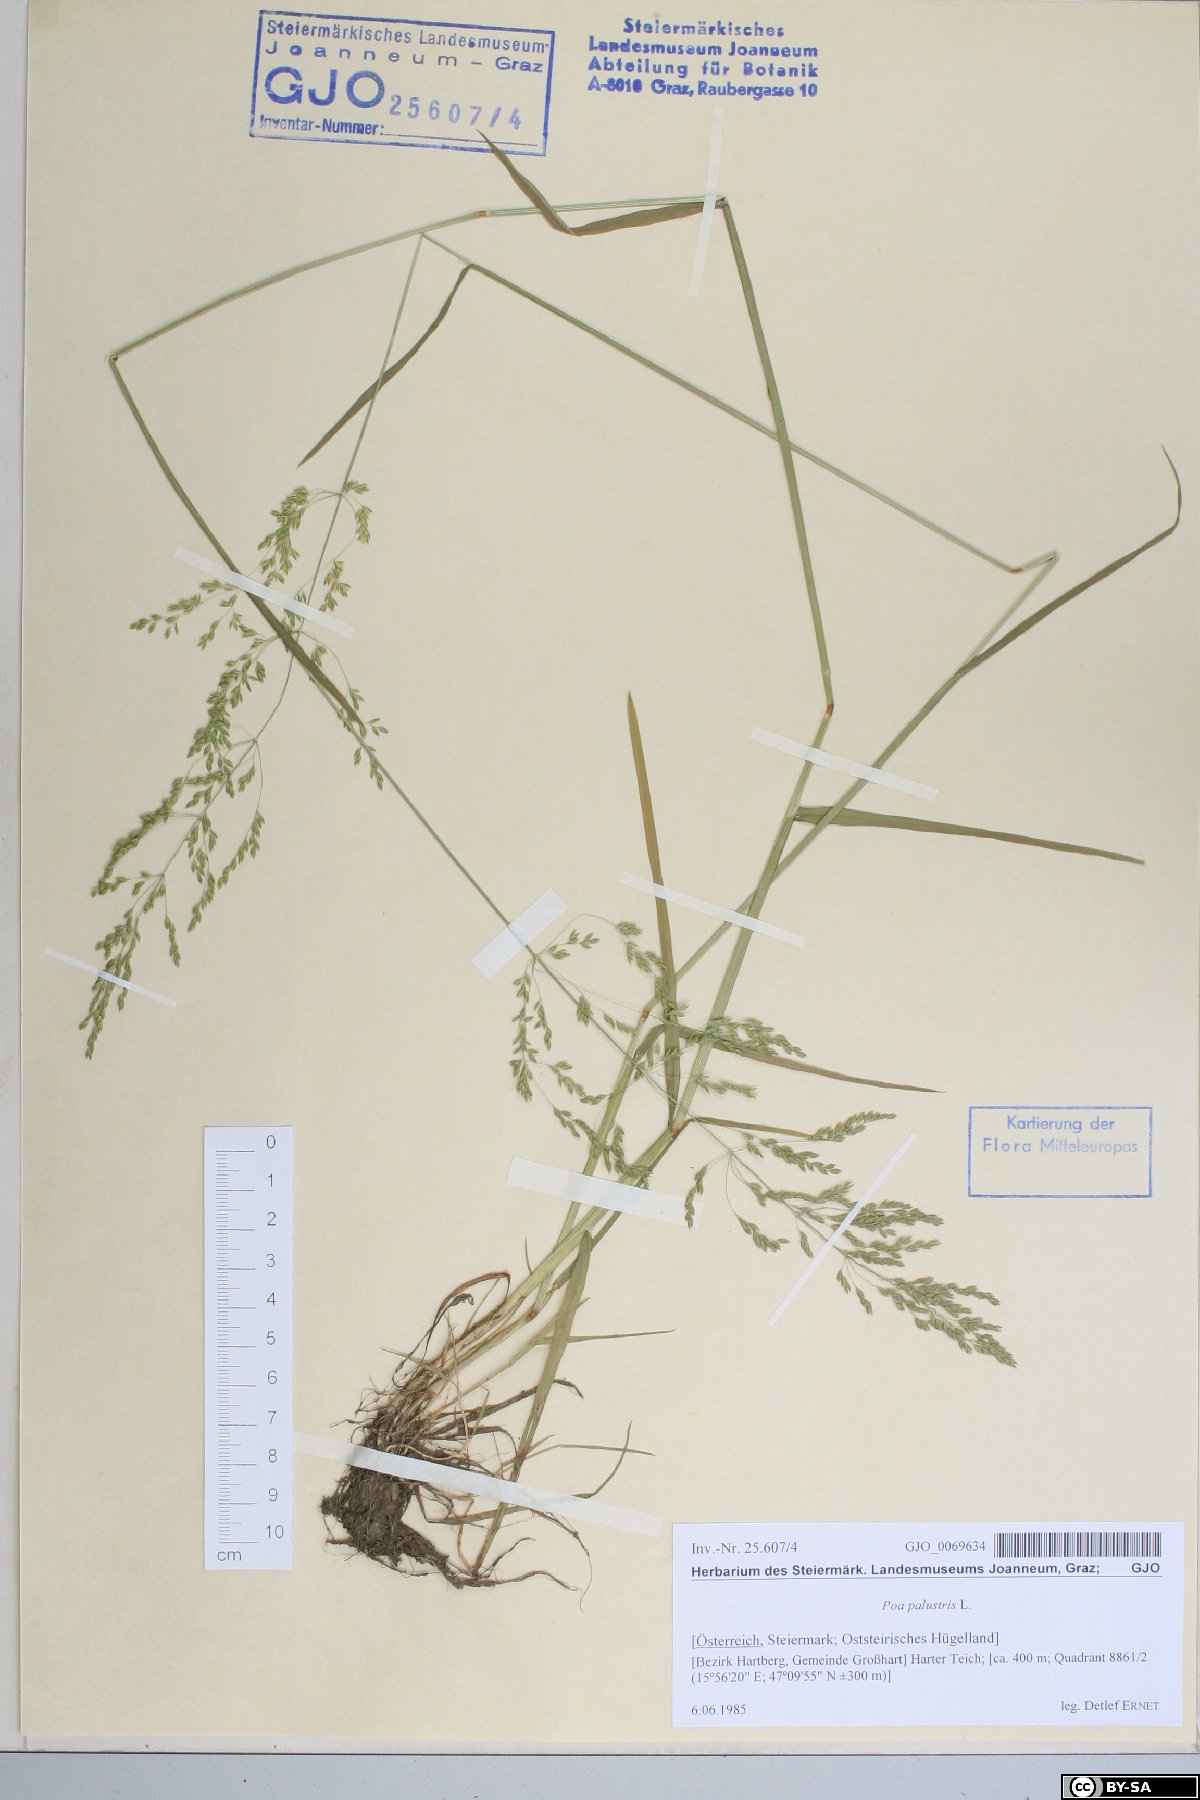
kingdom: Plantae
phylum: Tracheophyta
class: Liliopsida
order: Poales
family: Poaceae
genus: Poa
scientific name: Poa palustris
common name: Swamp meadow-grass
